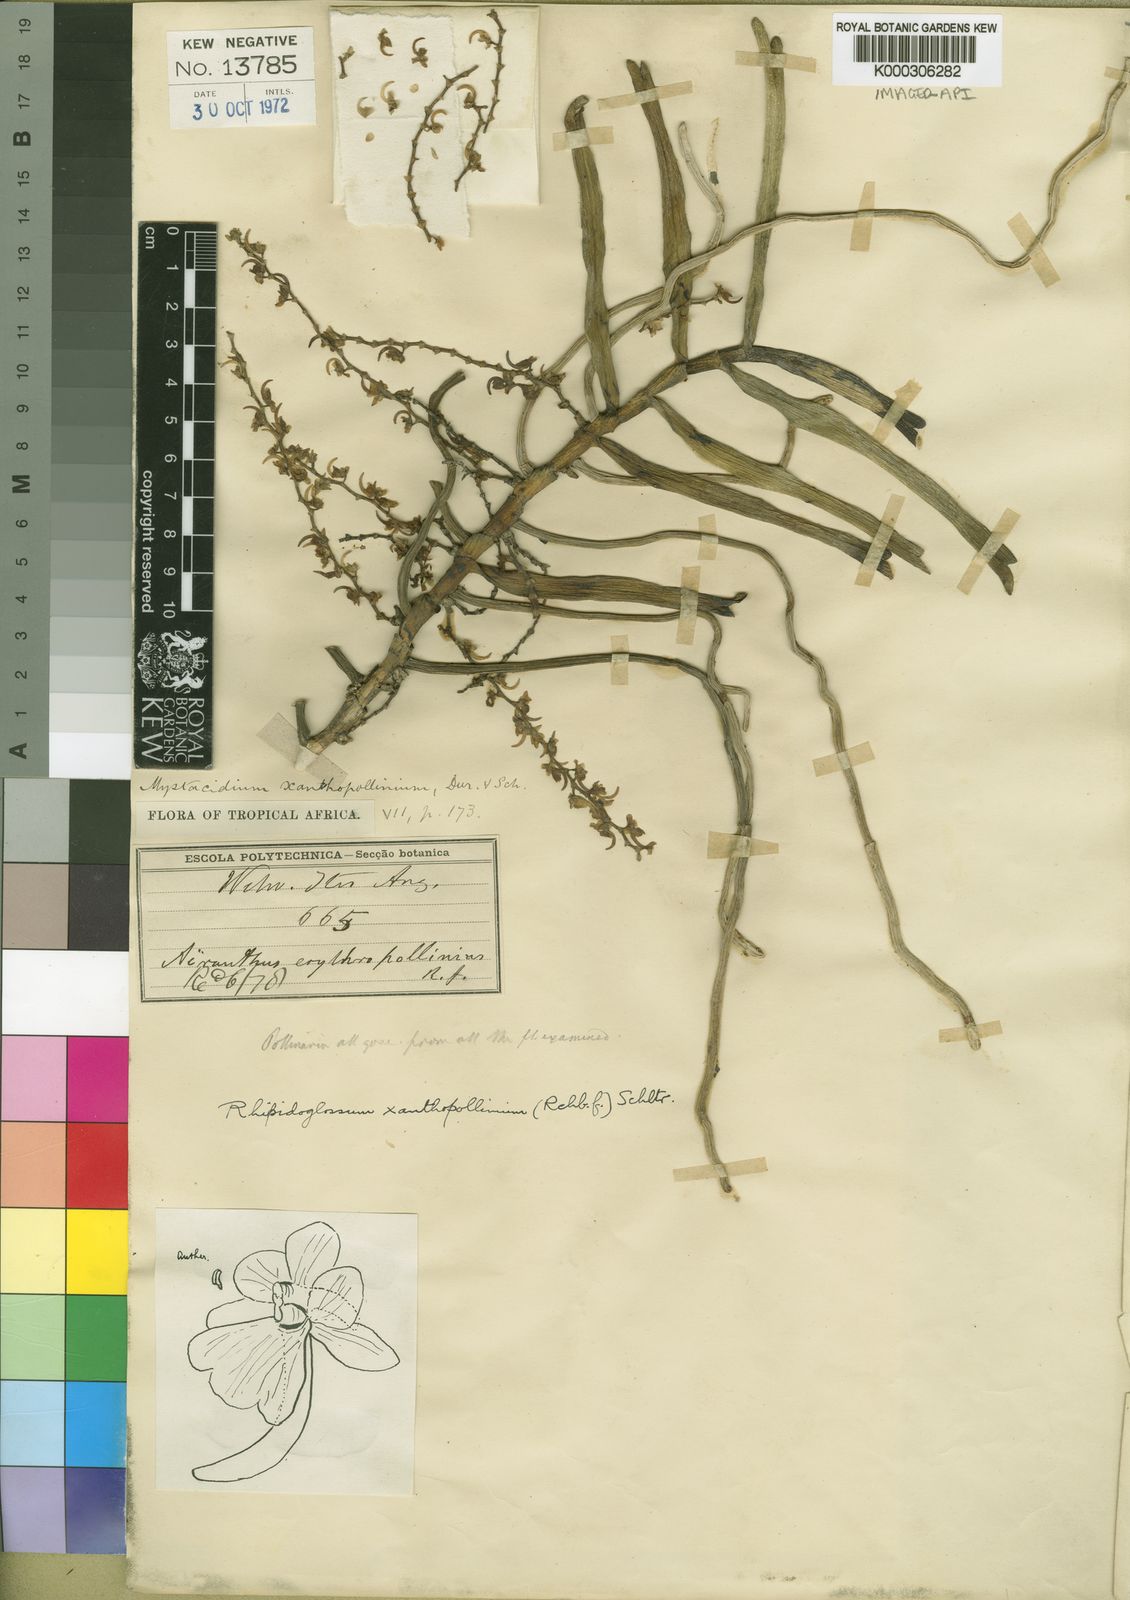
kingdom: Plantae
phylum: Tracheophyta
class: Liliopsida
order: Asparagales
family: Orchidaceae
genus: Rhipidoglossum
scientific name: Rhipidoglossum xanthopollinium
